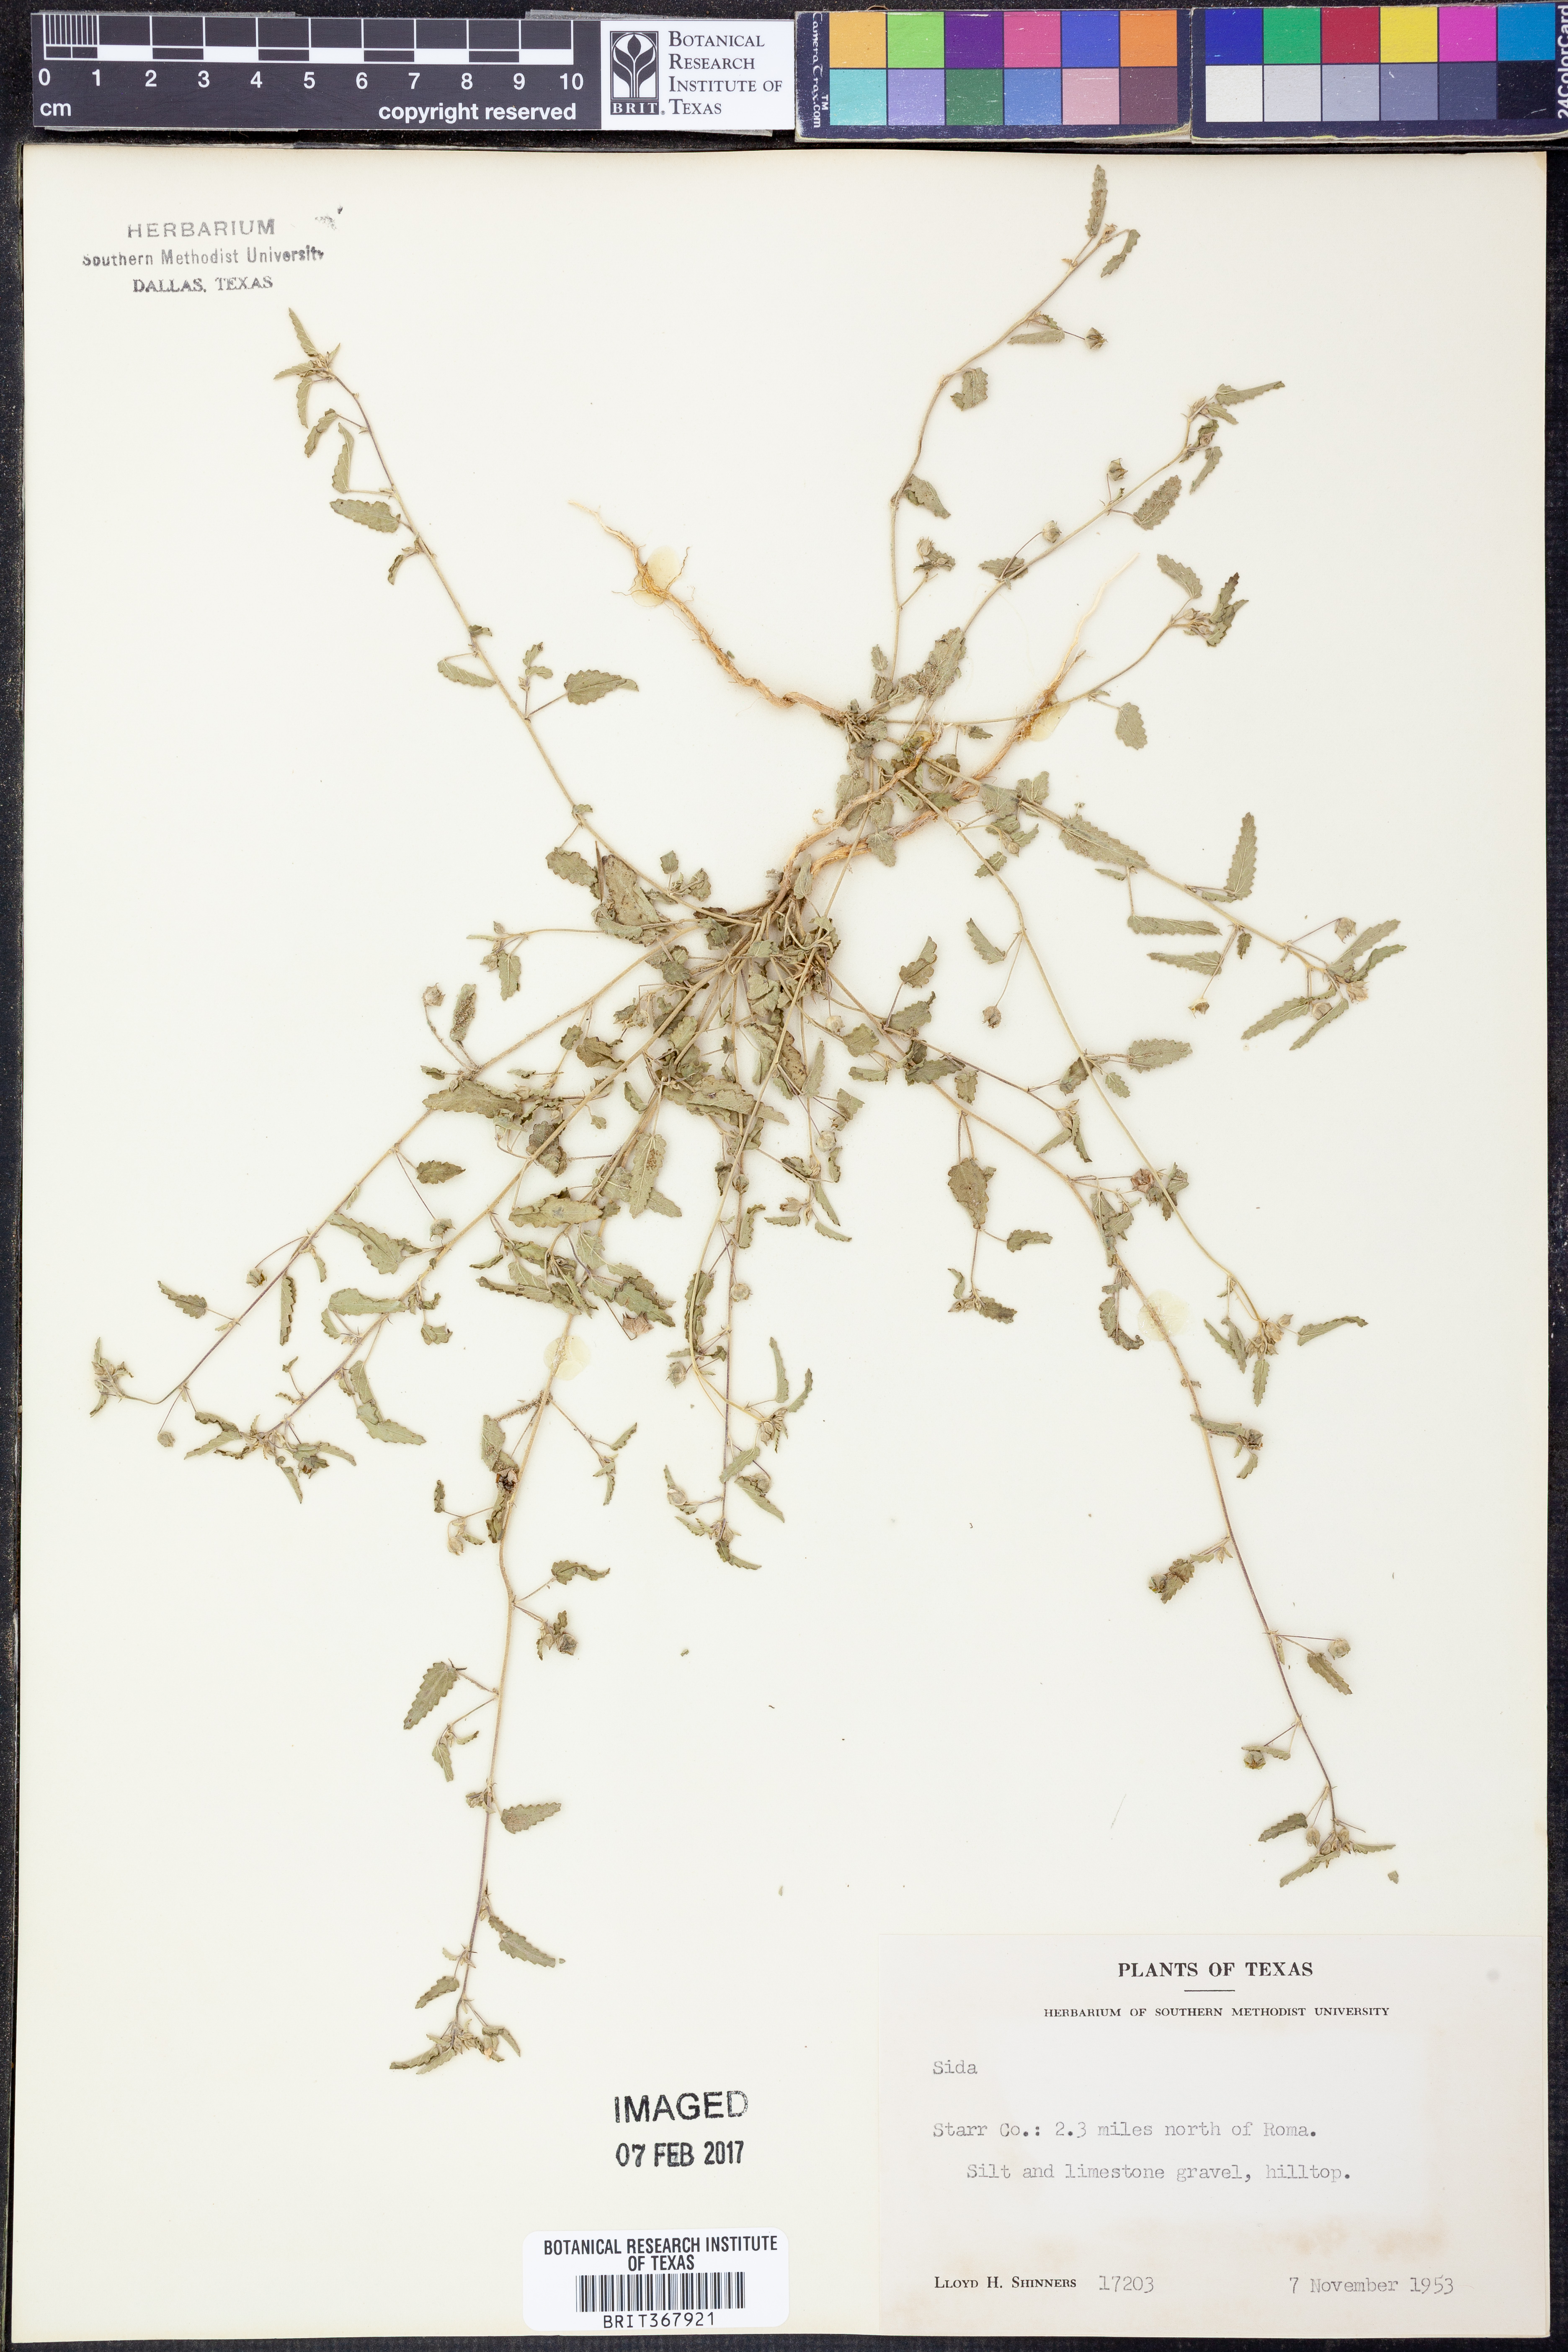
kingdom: Plantae
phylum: Tracheophyta
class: Magnoliopsida
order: Malvales
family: Malvaceae
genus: Sida
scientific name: Sida
